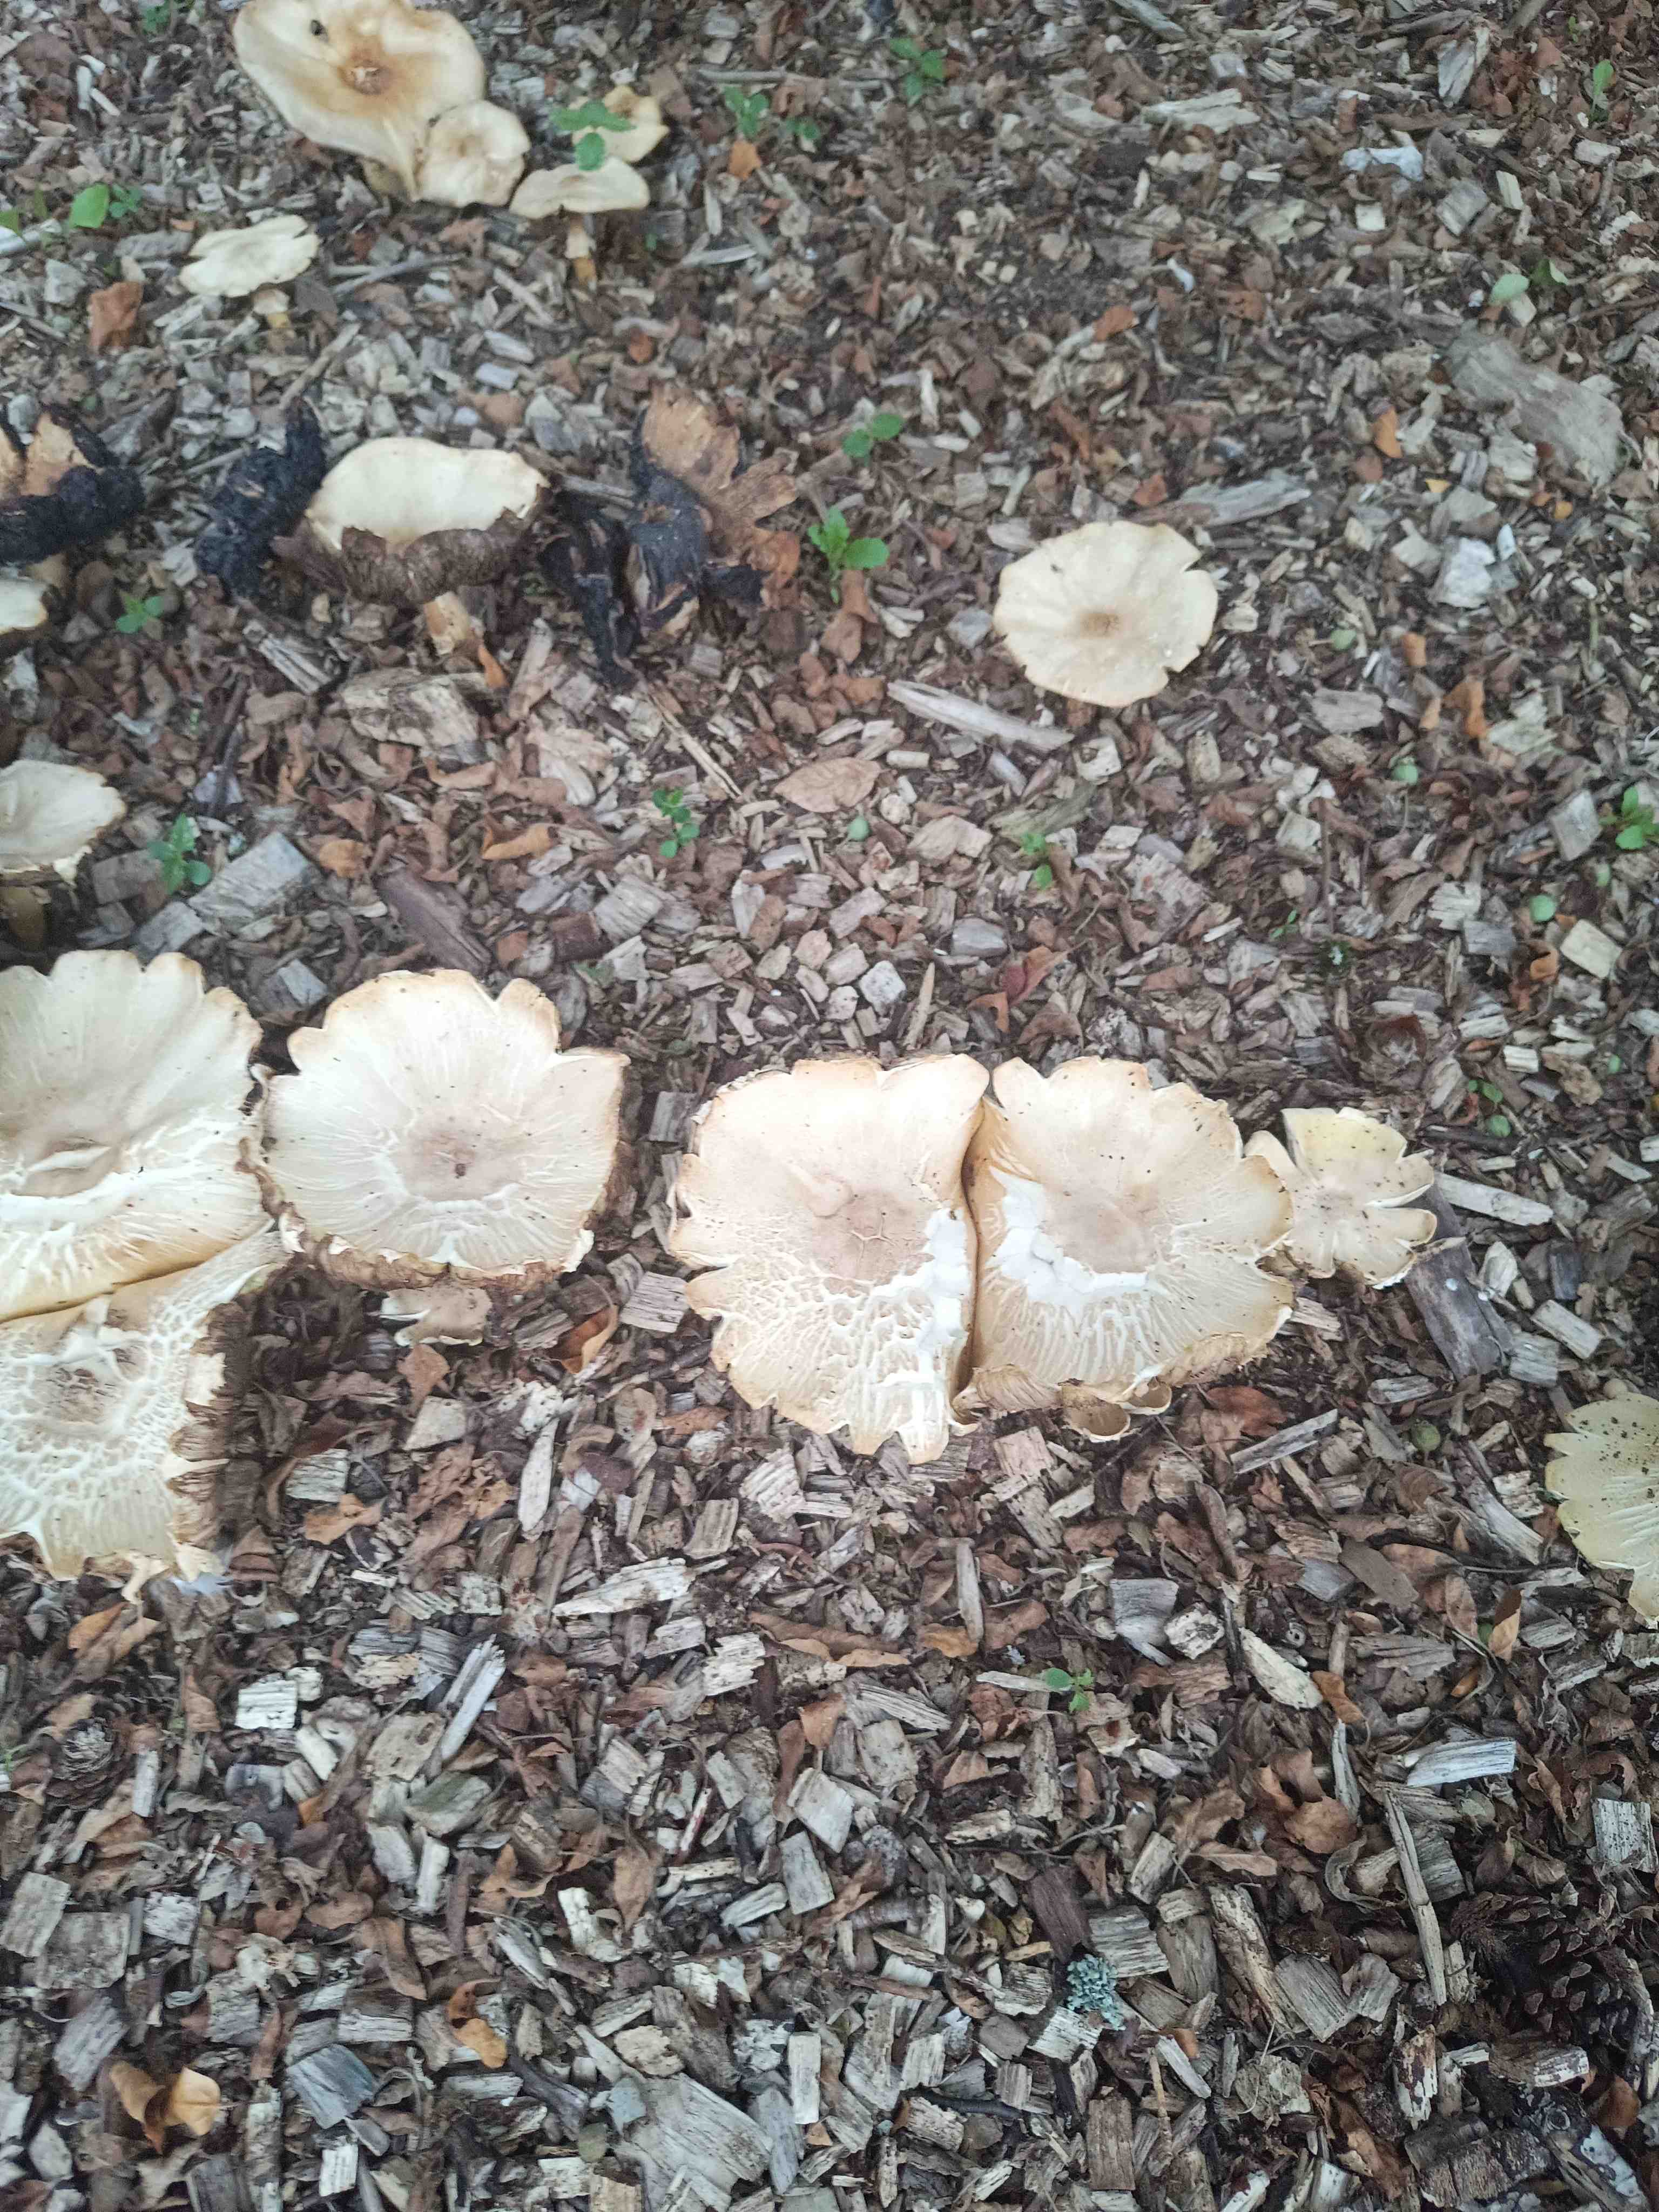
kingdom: Fungi
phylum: Basidiomycota
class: Agaricomycetes
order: Agaricales
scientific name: Agaricales
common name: champignonordenen
